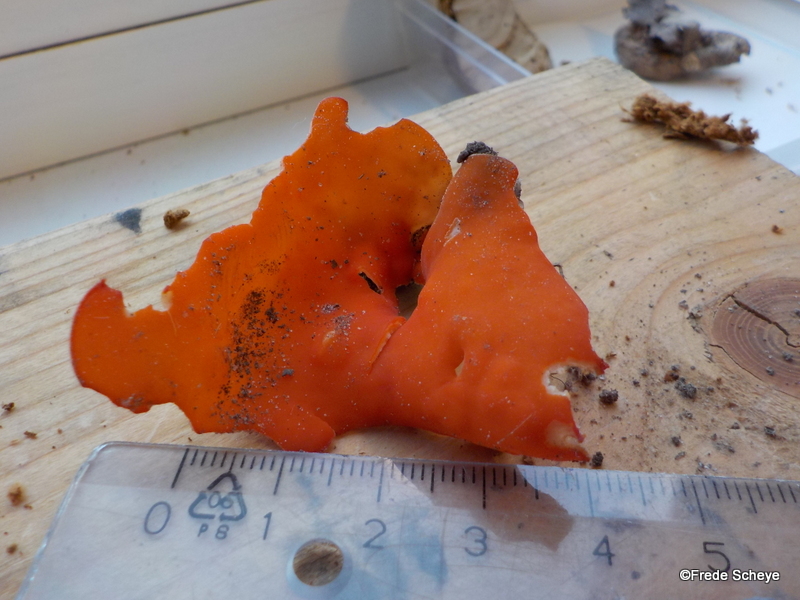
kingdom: Fungi
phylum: Ascomycota
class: Pezizomycetes
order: Pezizales
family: Pyronemataceae
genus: Aleuria
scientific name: Aleuria aurantia
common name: almindelig orangebæger
